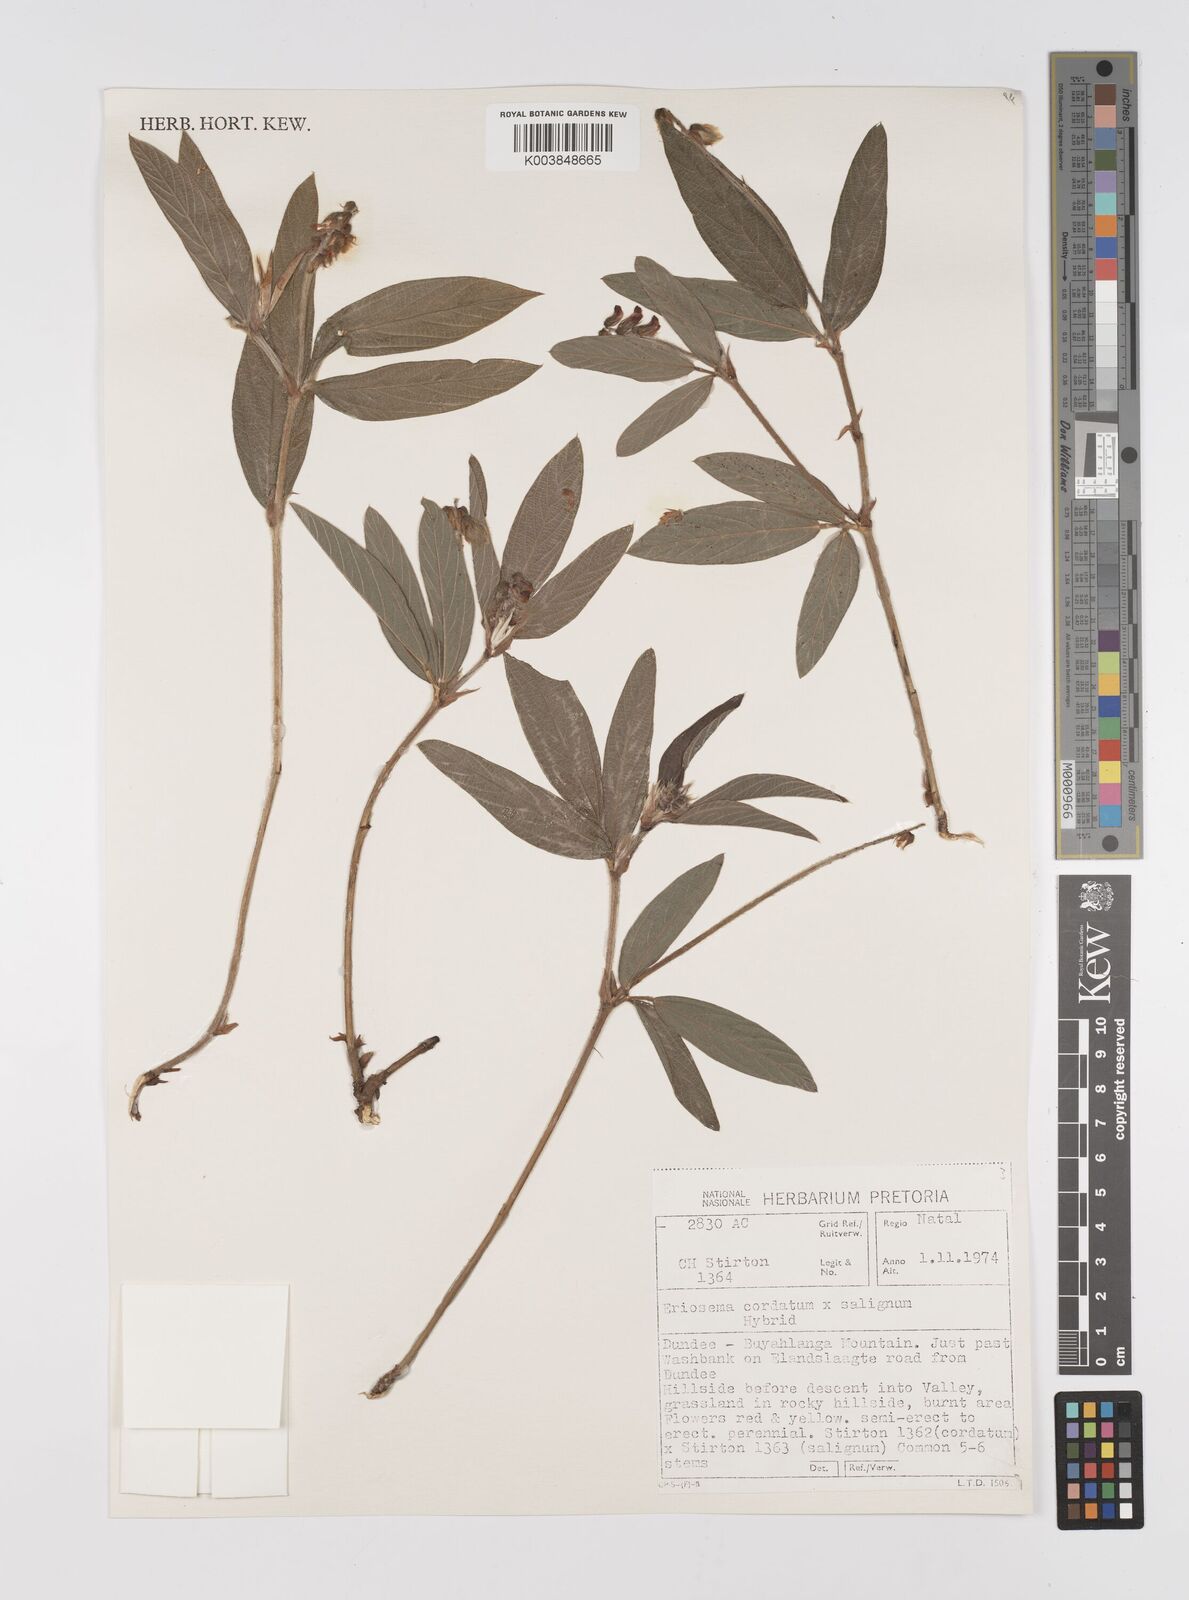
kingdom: Plantae
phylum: Tracheophyta
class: Magnoliopsida
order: Fabales
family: Fabaceae
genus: Eriosema
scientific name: Eriosema cordatum
